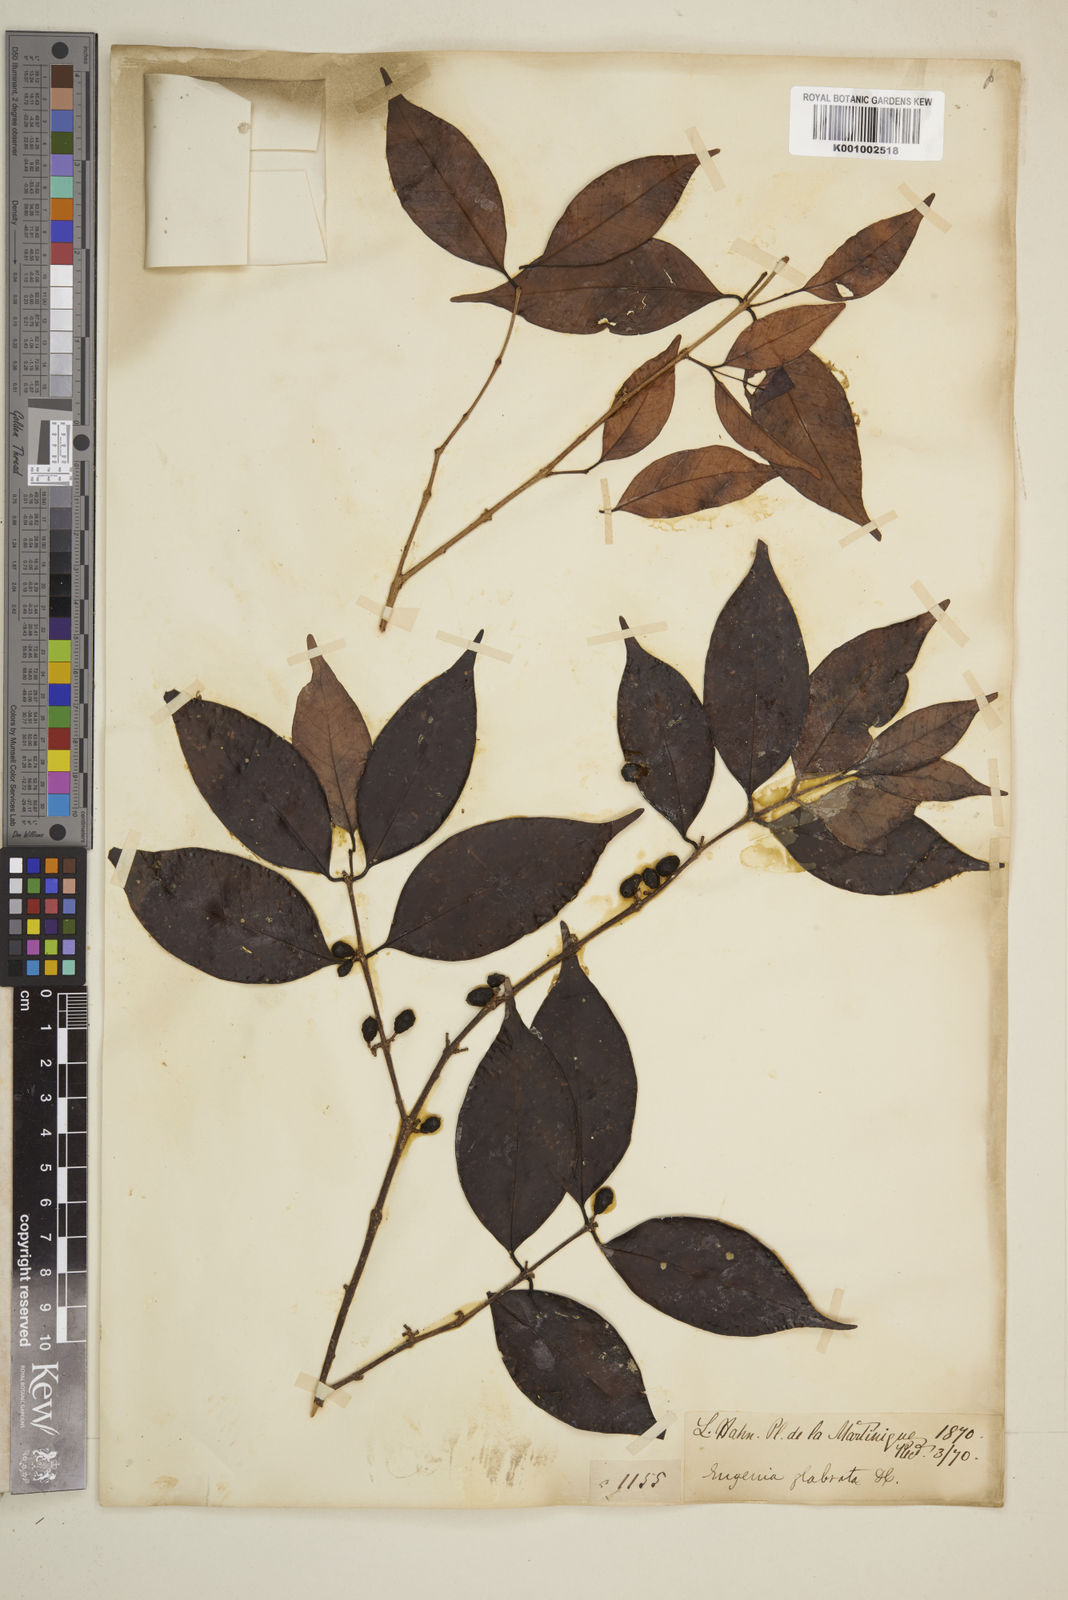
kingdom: Plantae
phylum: Tracheophyta
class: Magnoliopsida
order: Myrtales
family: Myrtaceae
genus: Eugenia
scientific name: Eugenia glabrata
